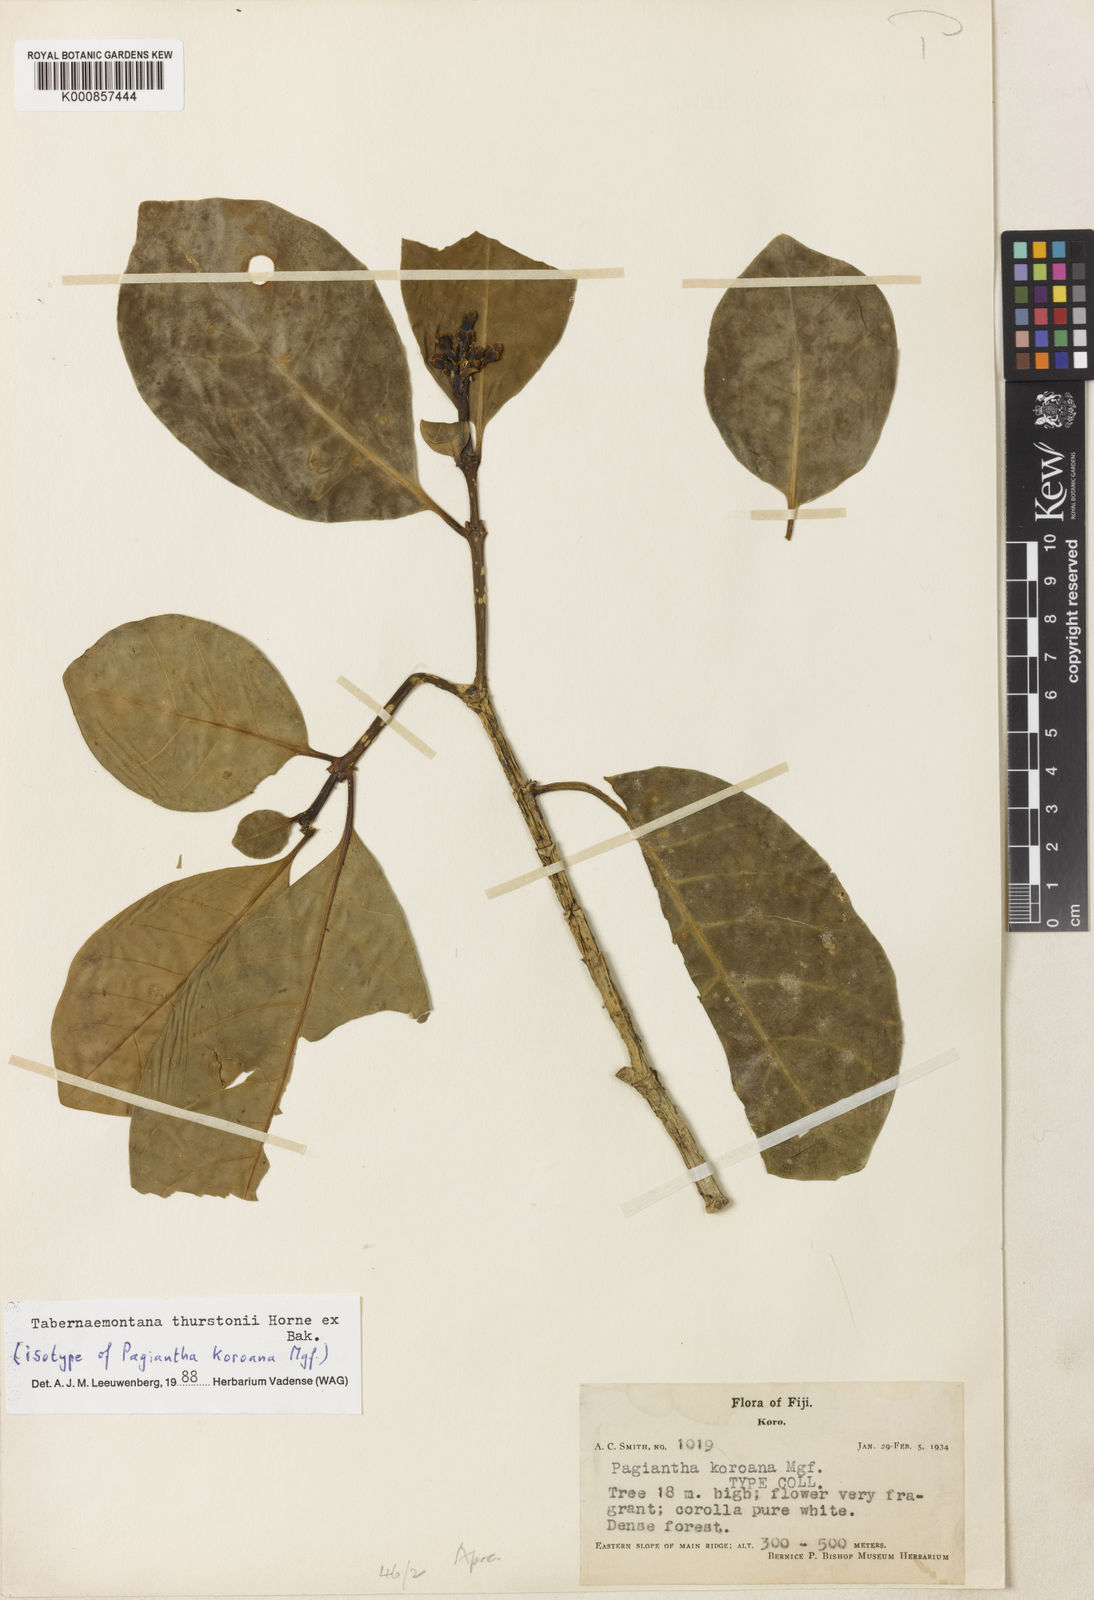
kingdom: Plantae
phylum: Tracheophyta
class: Magnoliopsida
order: Gentianales
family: Apocynaceae
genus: Tabernaemontana
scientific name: Tabernaemontana thurstonii
